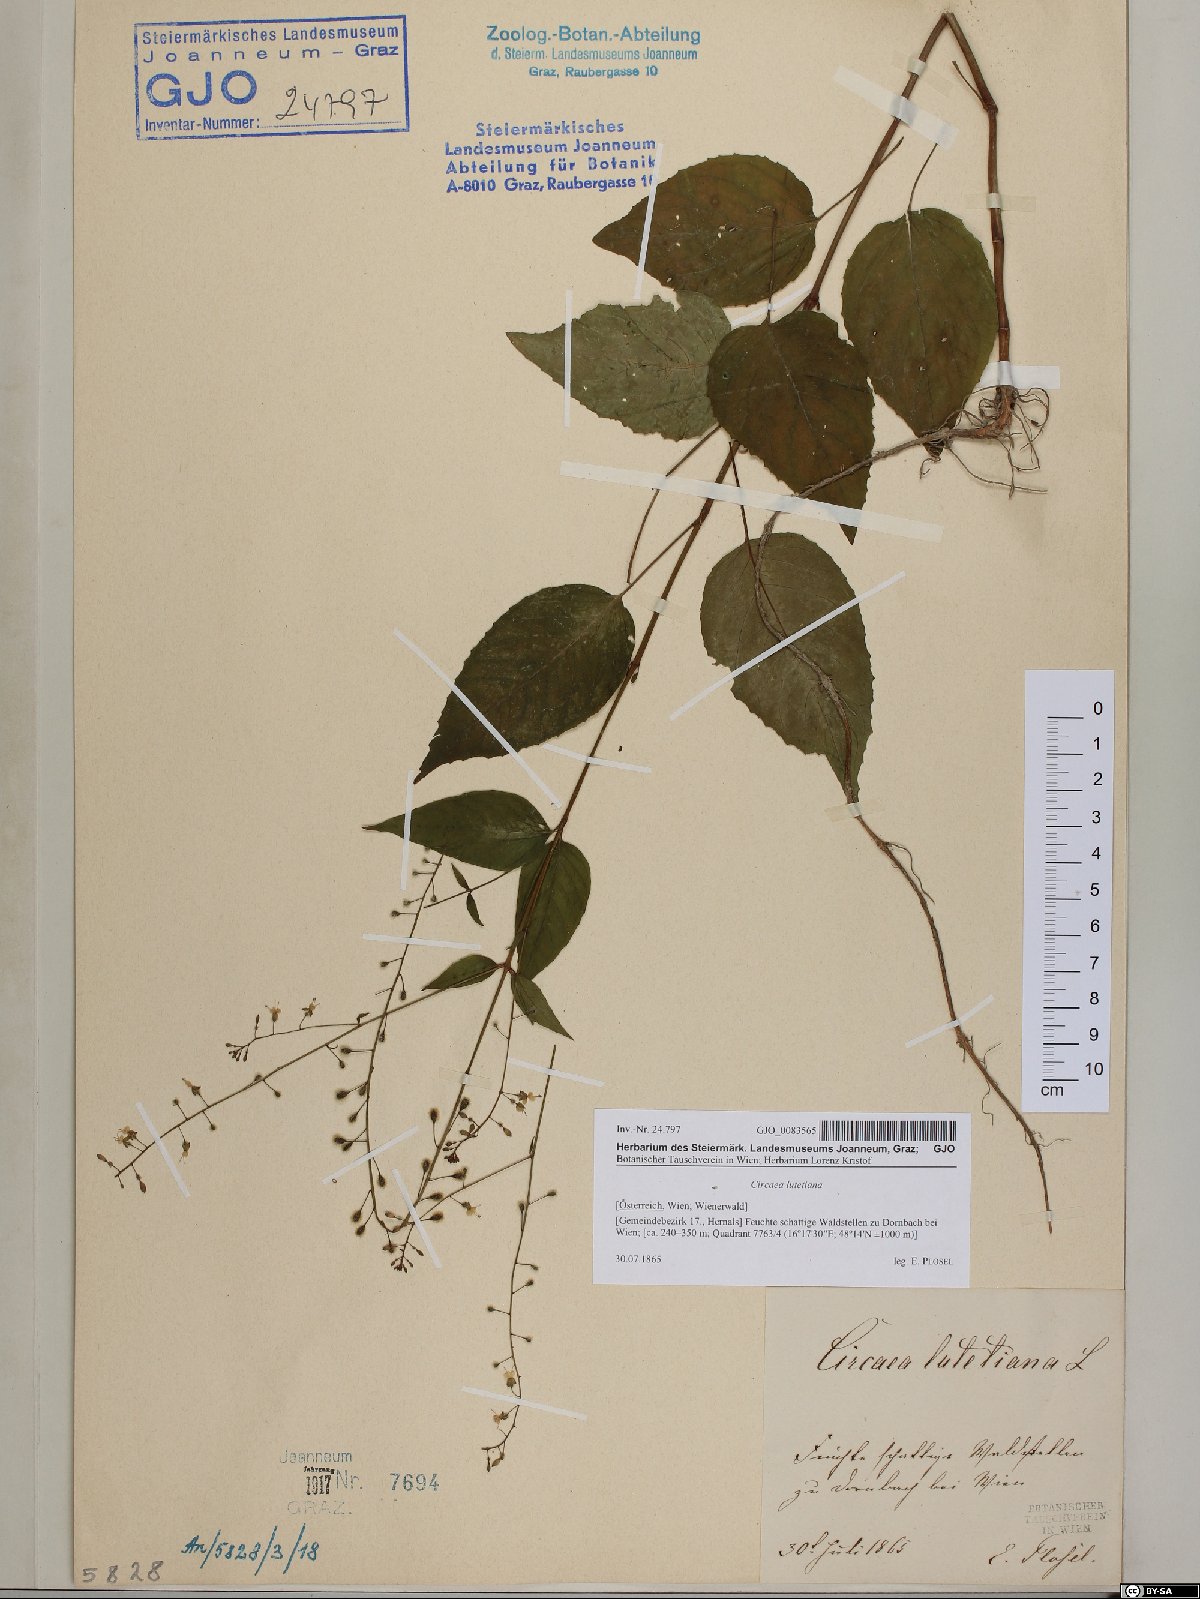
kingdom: Plantae
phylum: Tracheophyta
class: Magnoliopsida
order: Myrtales
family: Onagraceae
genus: Circaea
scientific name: Circaea lutetiana
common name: Enchanter's-nightshade
